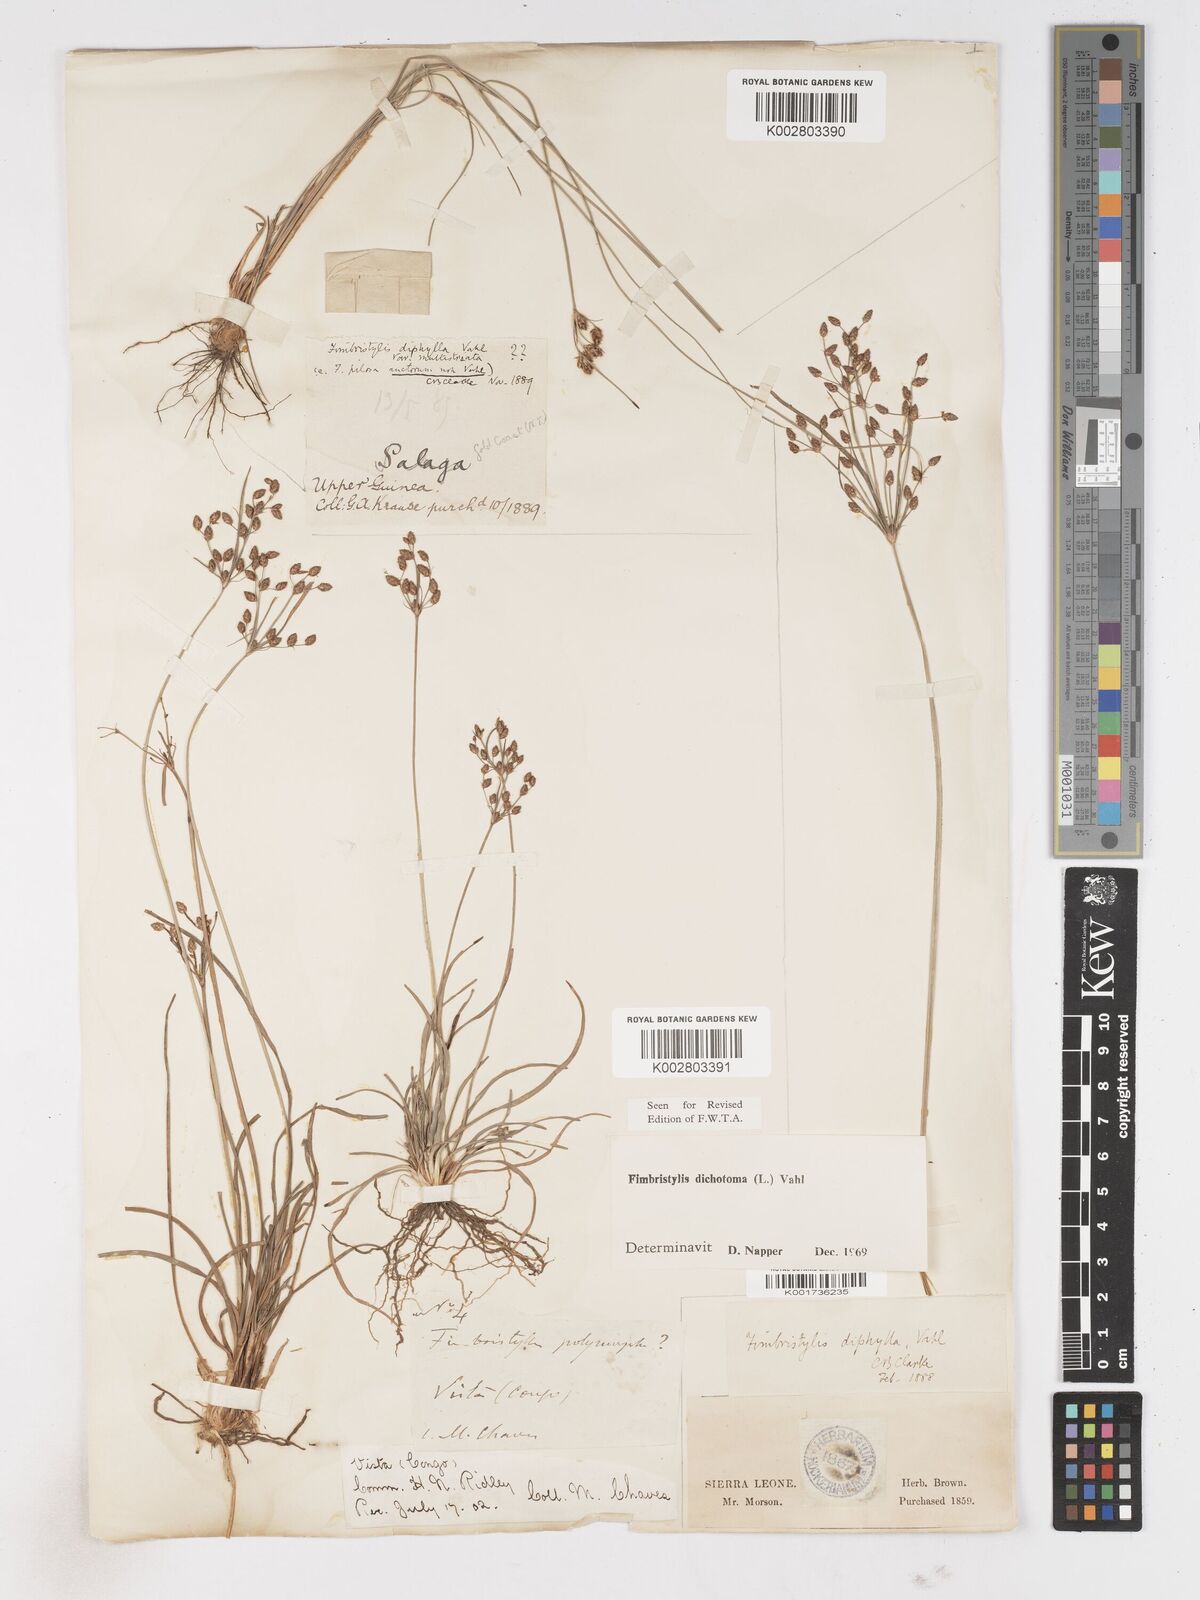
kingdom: Plantae
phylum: Tracheophyta
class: Liliopsida
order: Poales
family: Cyperaceae
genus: Fimbristylis
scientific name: Fimbristylis dichotoma
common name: Forked fimbry
